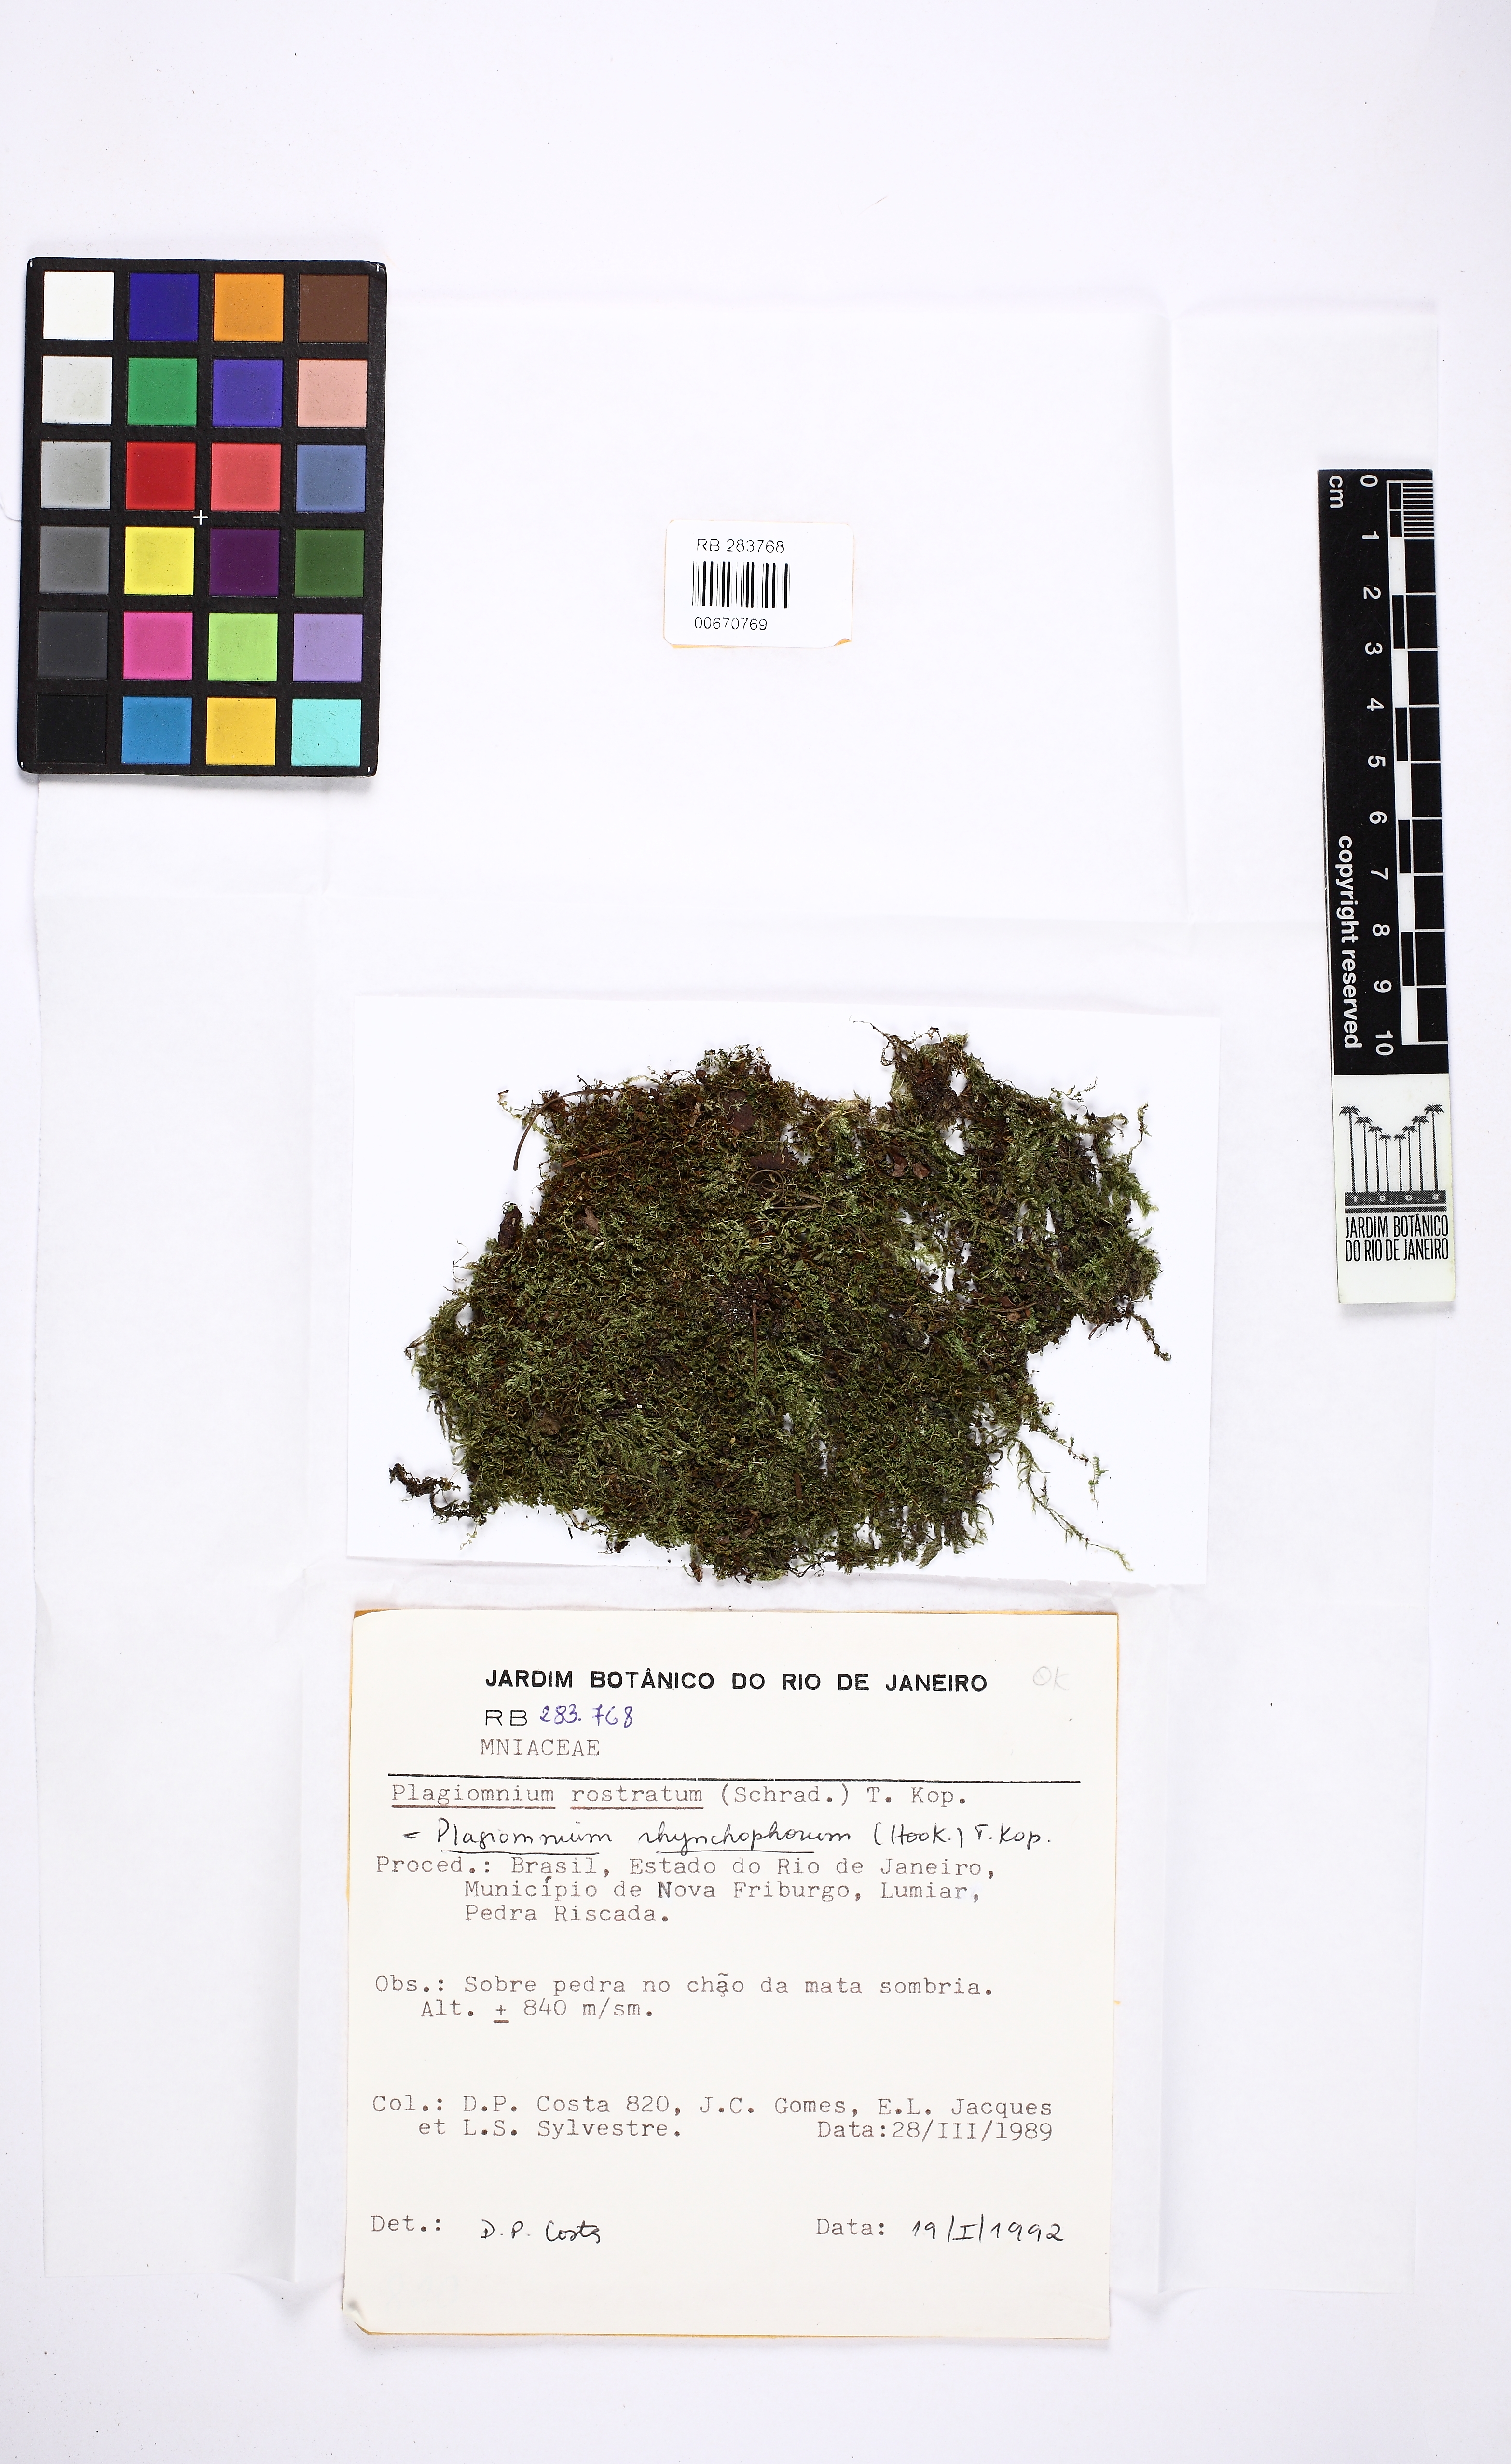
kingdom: Plantae
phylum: Bryophyta
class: Bryopsida
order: Bryales
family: Mniaceae
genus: Plagiomnium
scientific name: Plagiomnium rhynchophorum
